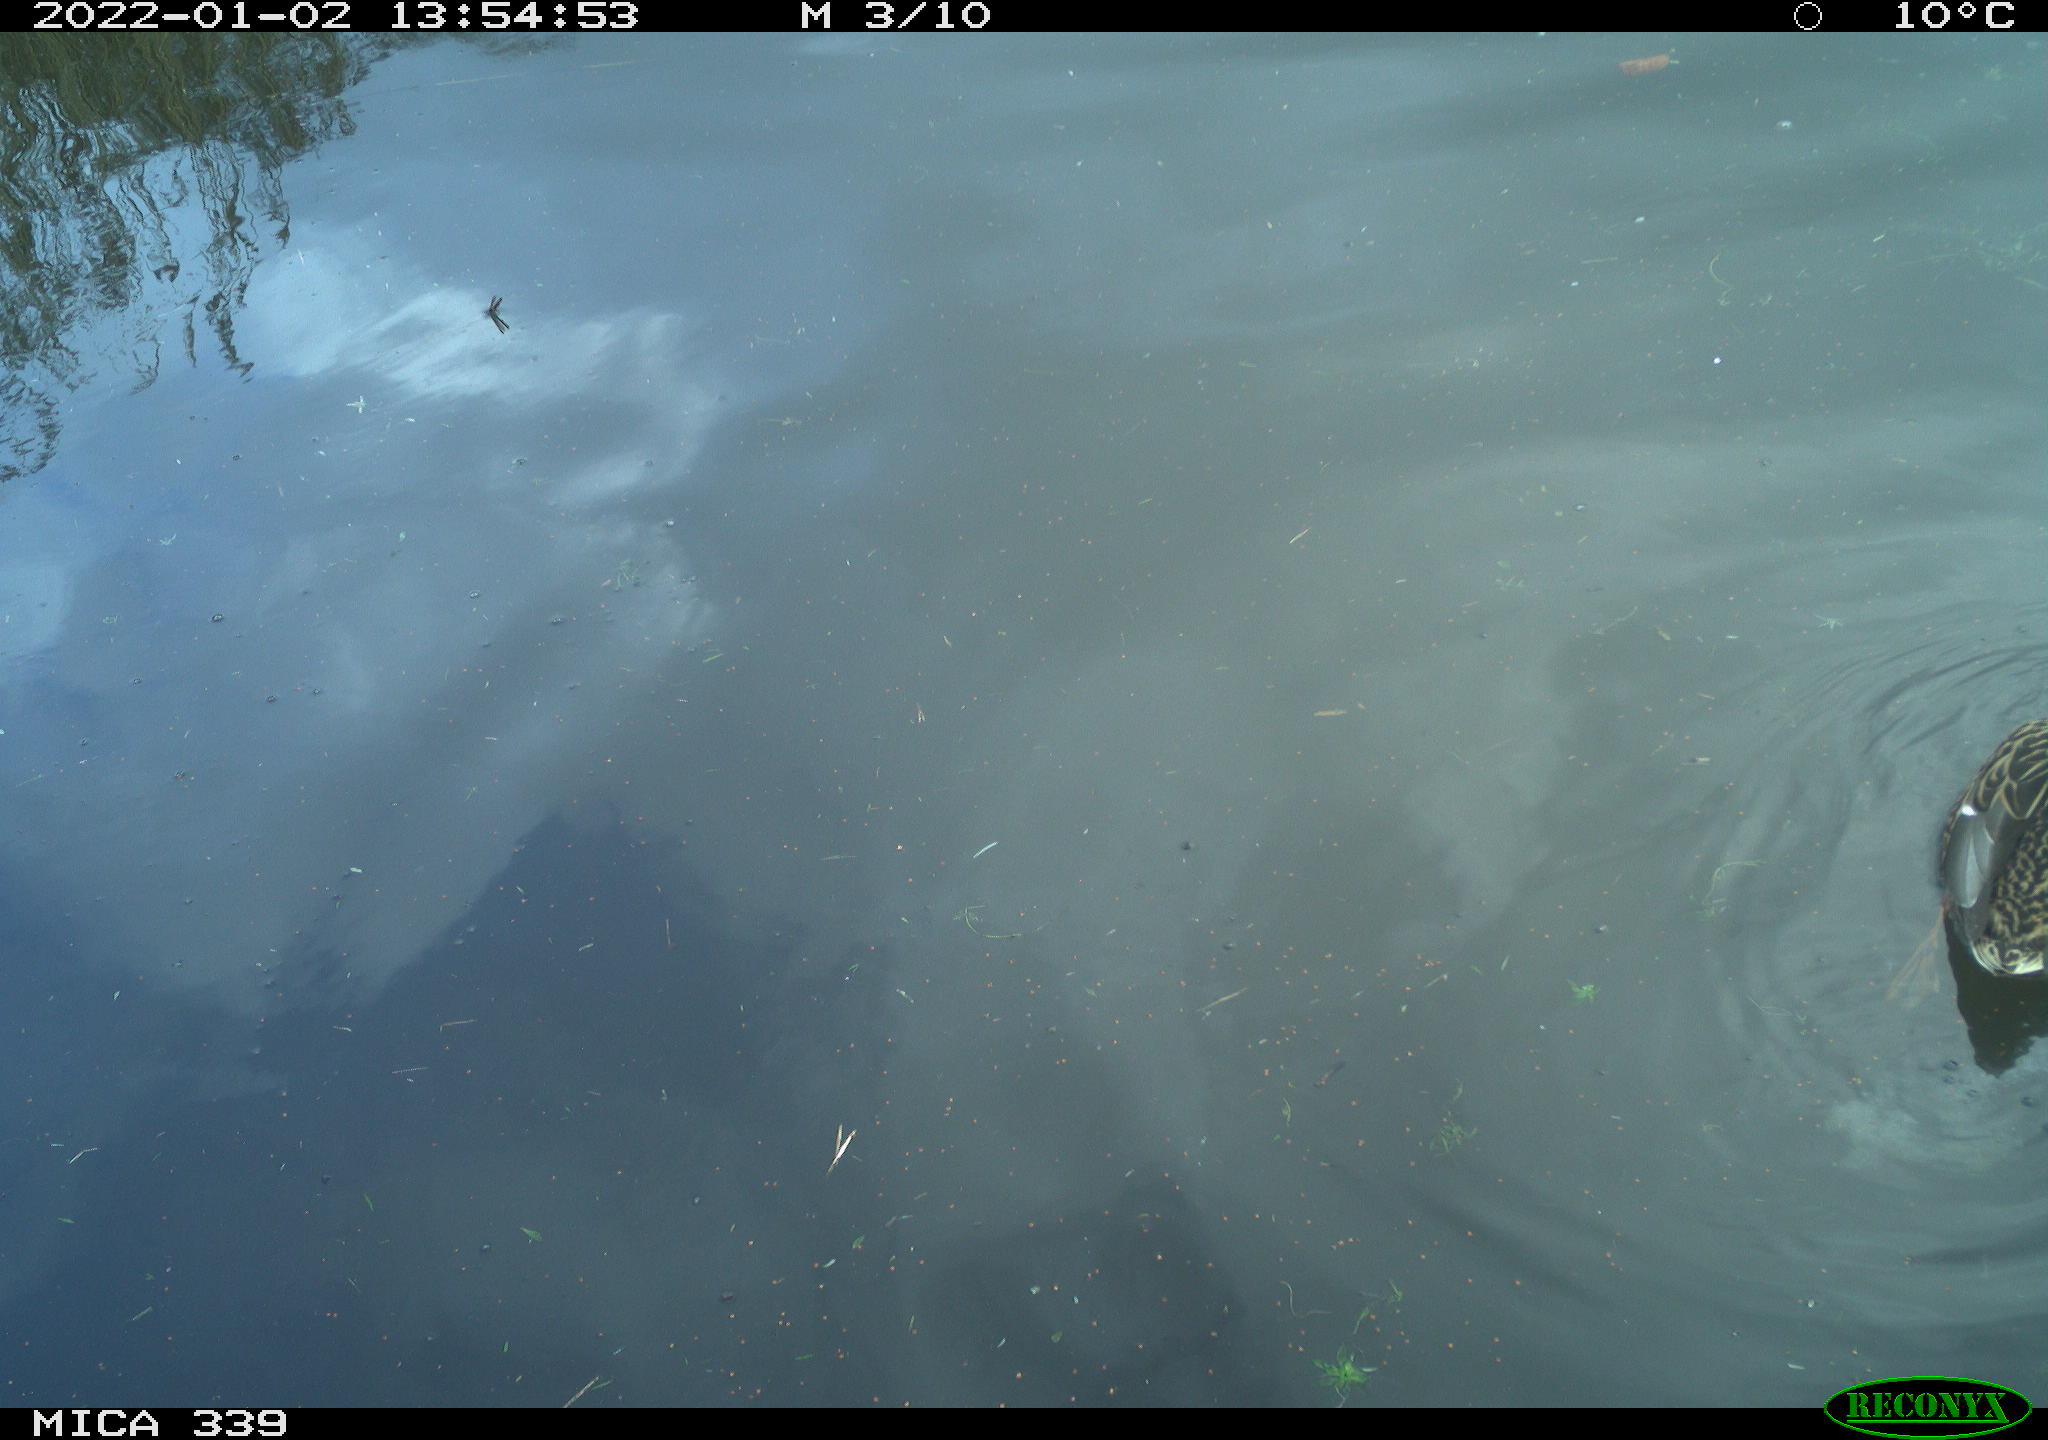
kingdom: Animalia
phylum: Chordata
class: Aves
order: Anseriformes
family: Anatidae
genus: Anas
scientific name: Anas platyrhynchos
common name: Mallard
